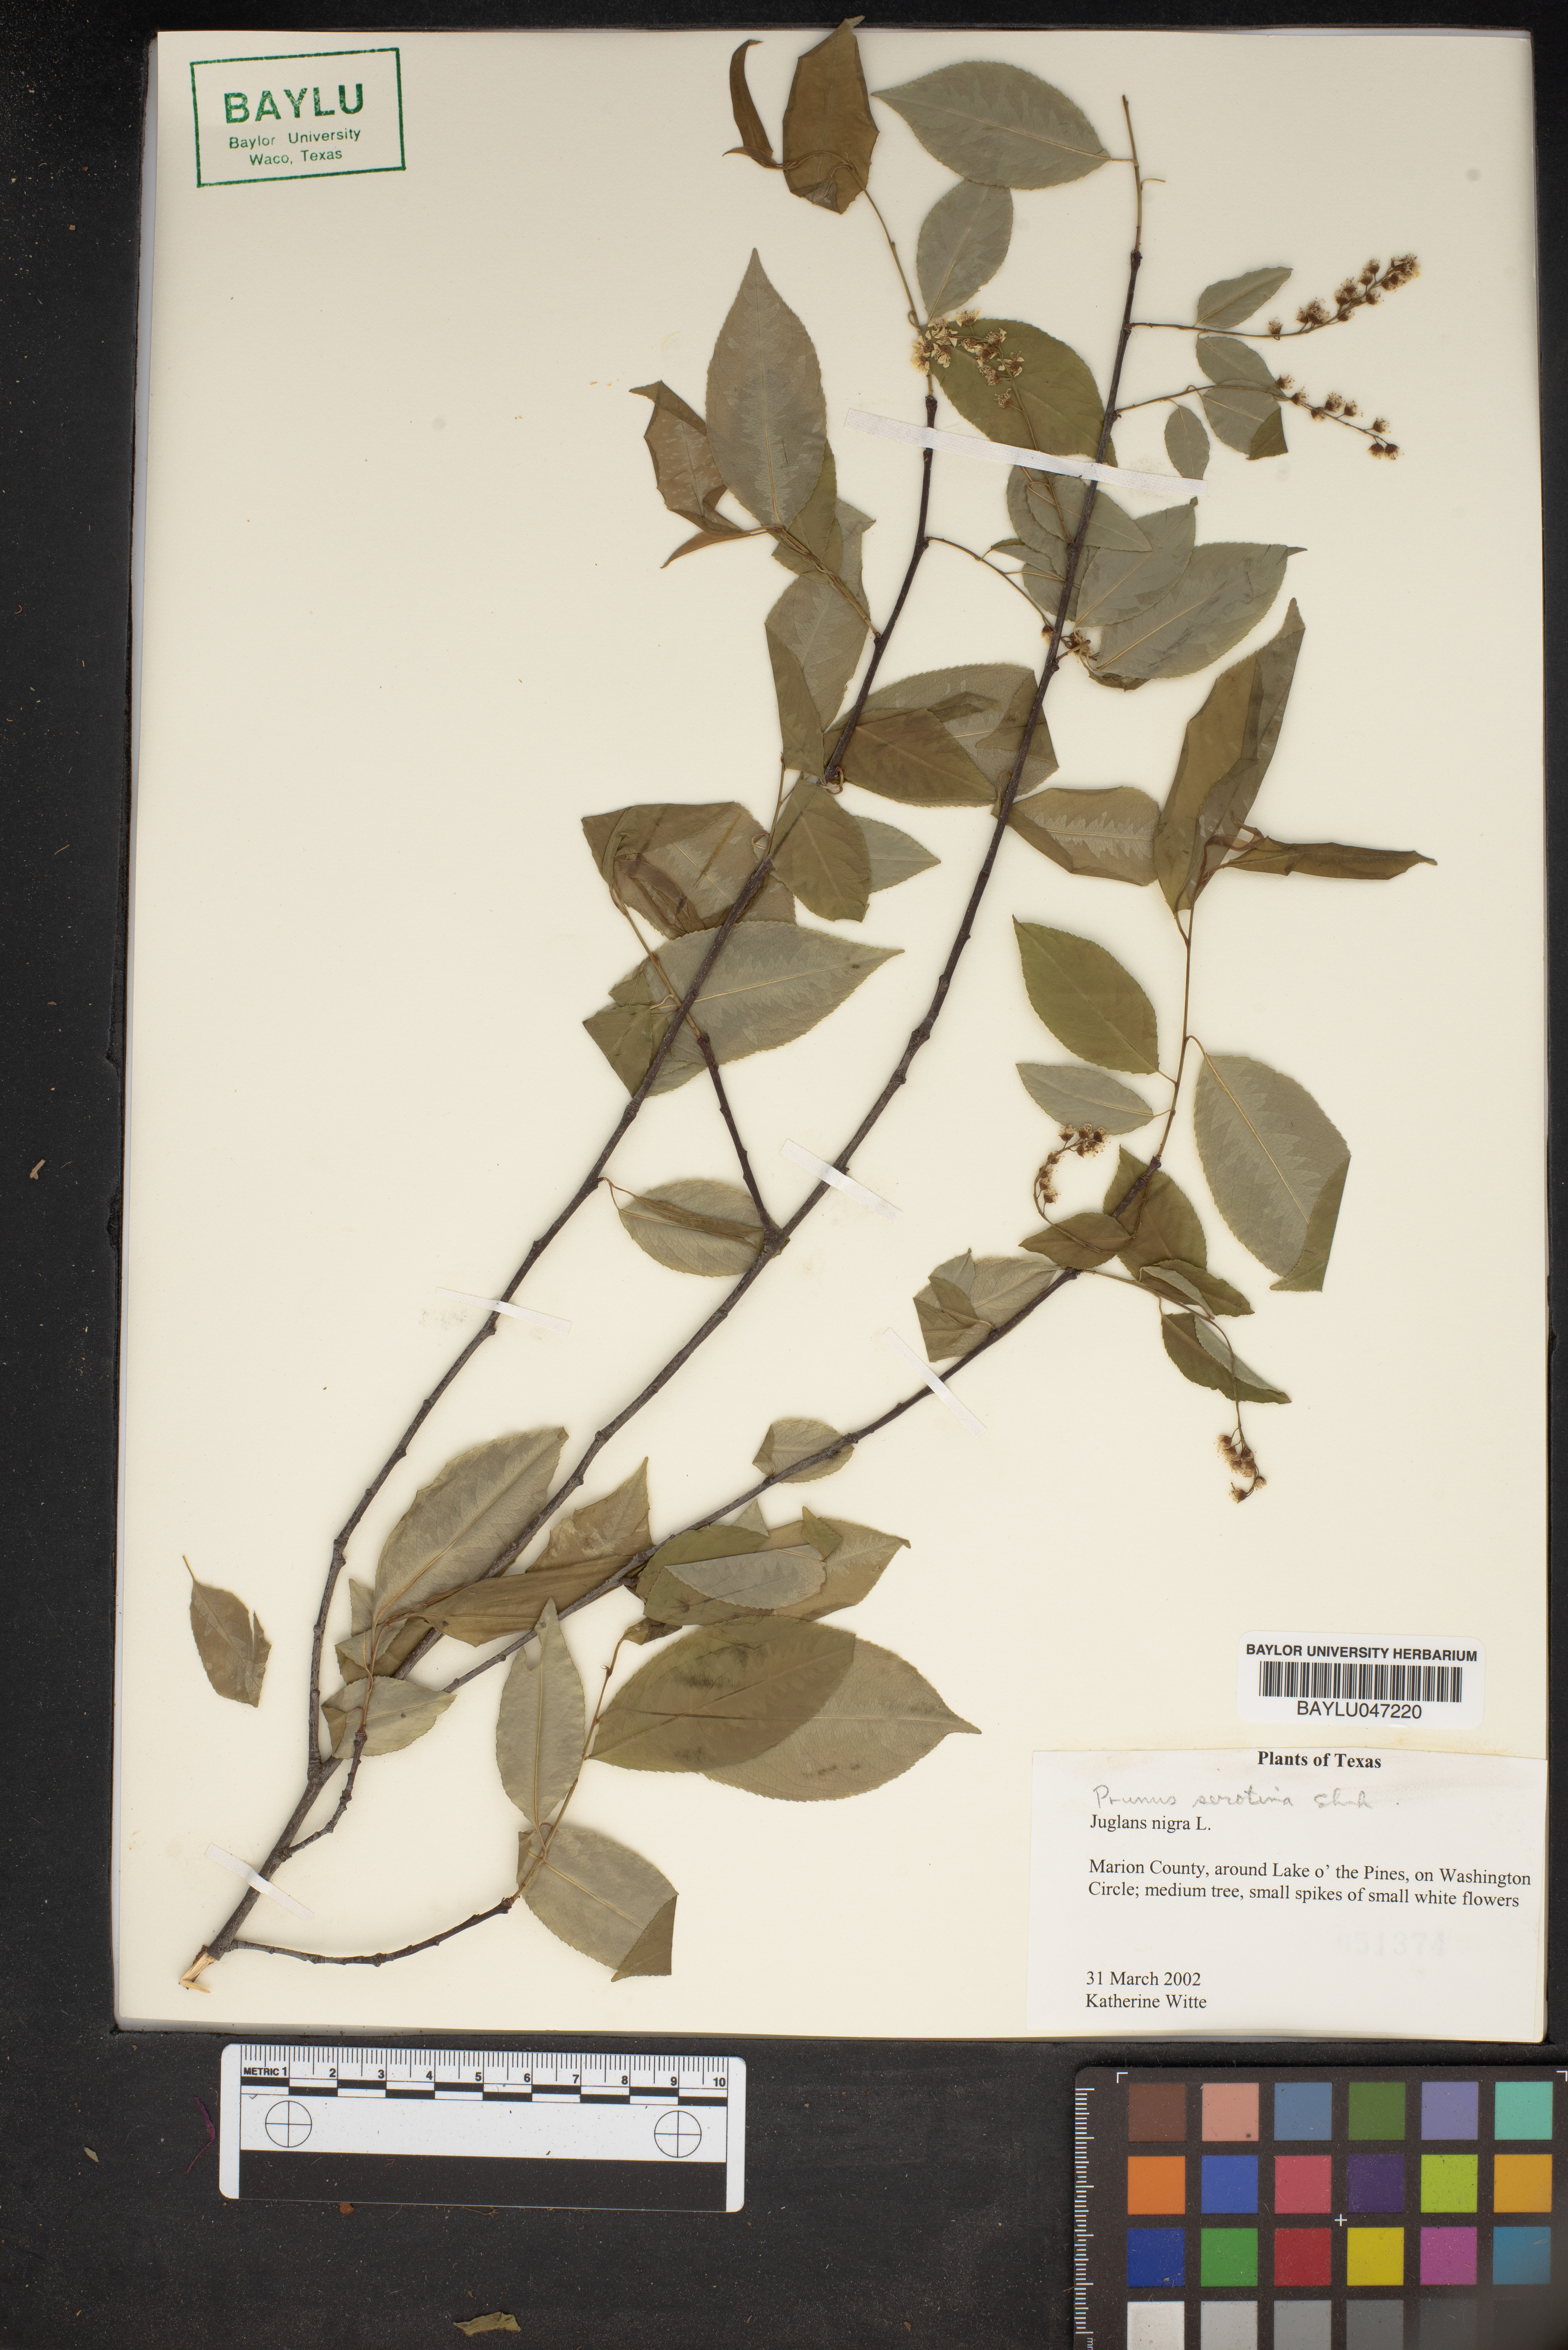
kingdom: Plantae
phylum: Tracheophyta
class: Magnoliopsida
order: Fagales
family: Juglandaceae
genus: Juglans
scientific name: Juglans nigra
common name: Black walnut
